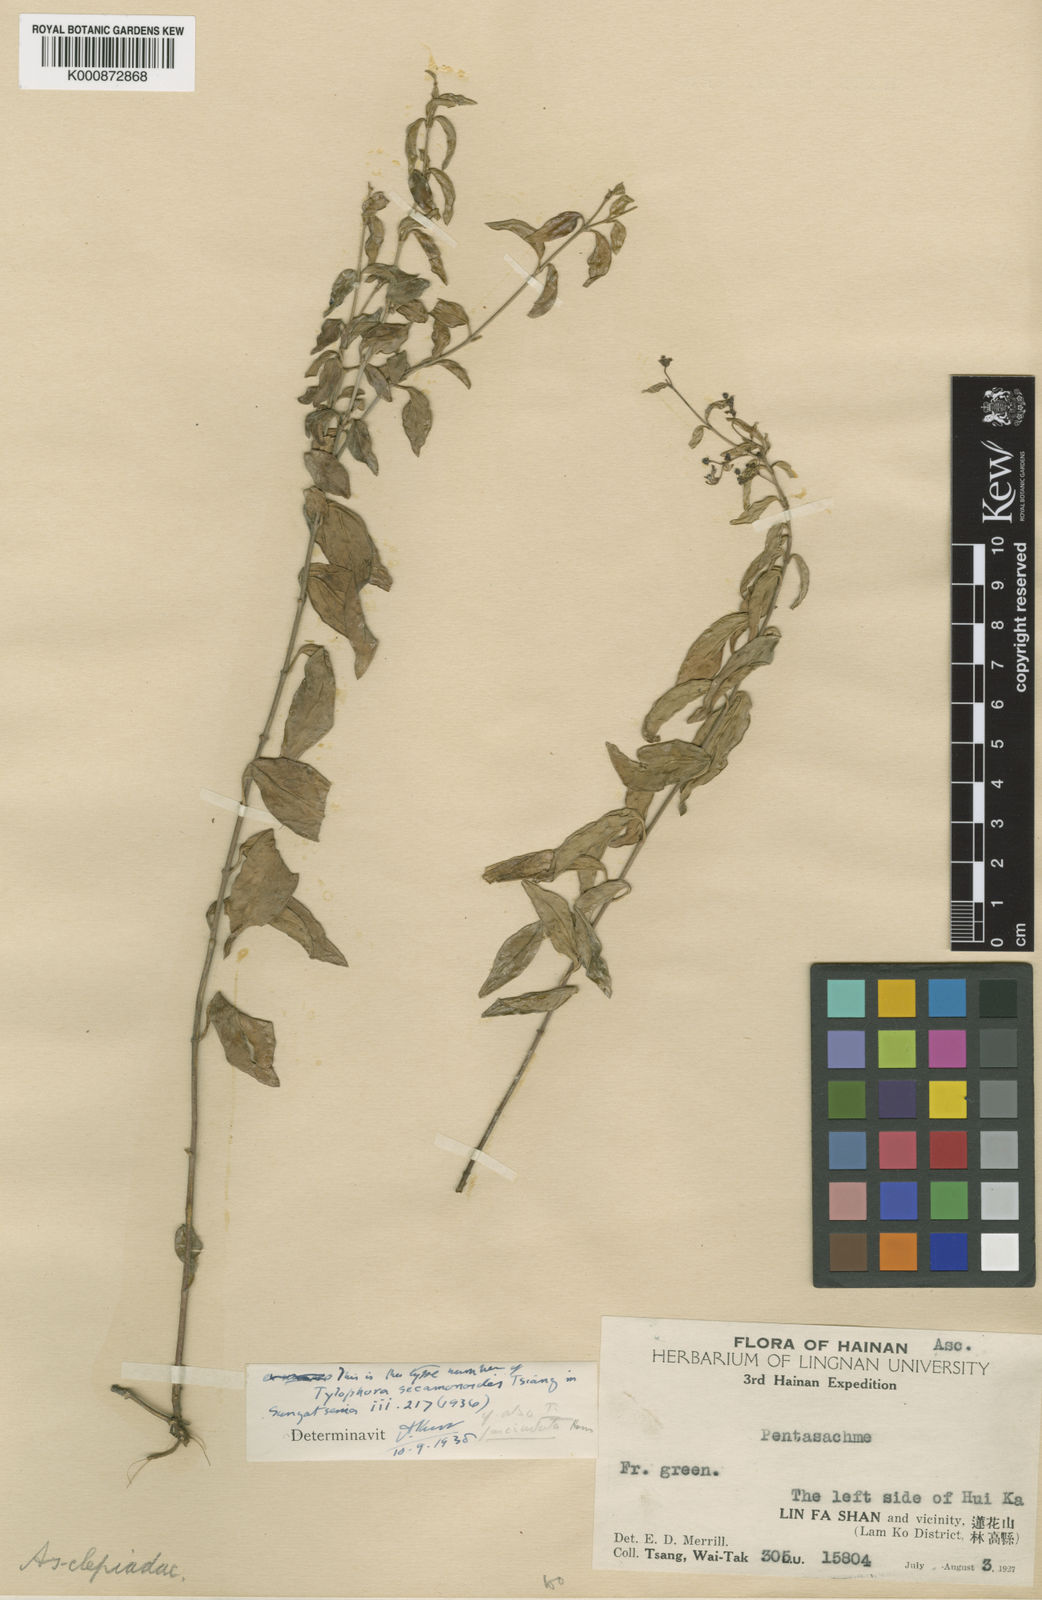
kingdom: Plantae
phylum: Tracheophyta
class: Magnoliopsida
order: Gentianales
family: Apocynaceae
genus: Vincetoxicum
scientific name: Vincetoxicum secamonoides
